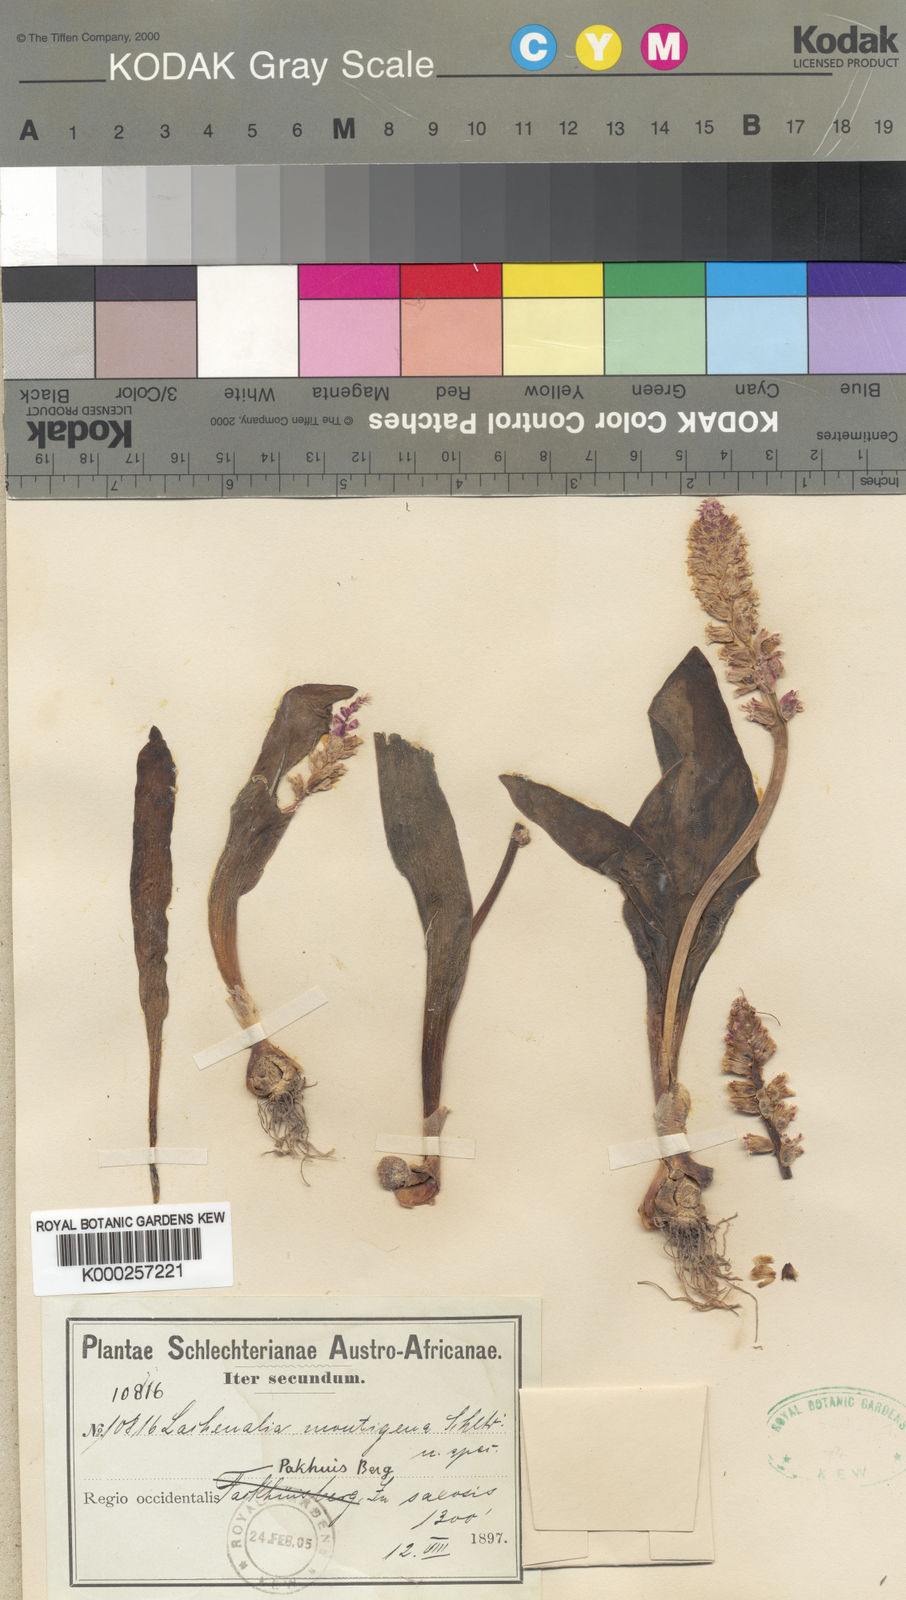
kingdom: Plantae
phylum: Tracheophyta
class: Liliopsida
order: Asparagales
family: Asparagaceae
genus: Lachenalia
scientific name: Lachenalia membranacea
